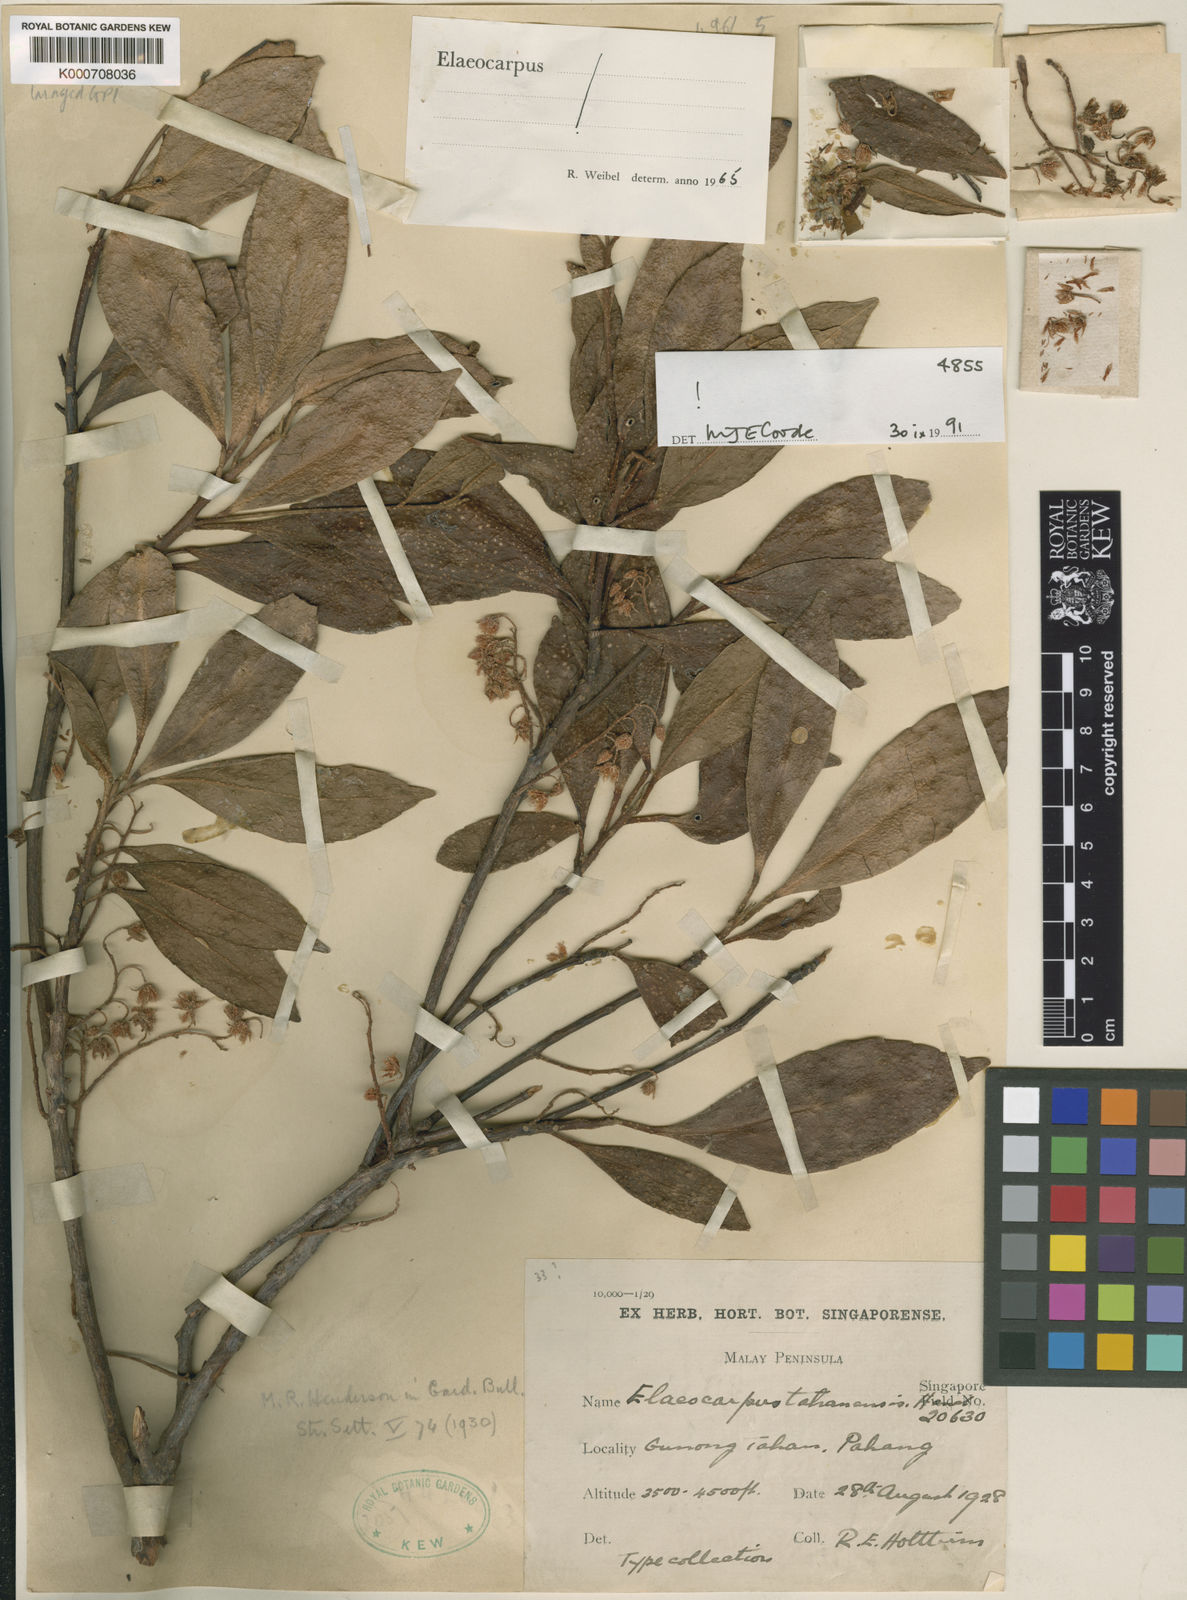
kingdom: Plantae
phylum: Tracheophyta
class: Magnoliopsida
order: Oxalidales
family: Elaeocarpaceae
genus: Elaeocarpus
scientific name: Elaeocarpus floribundus
